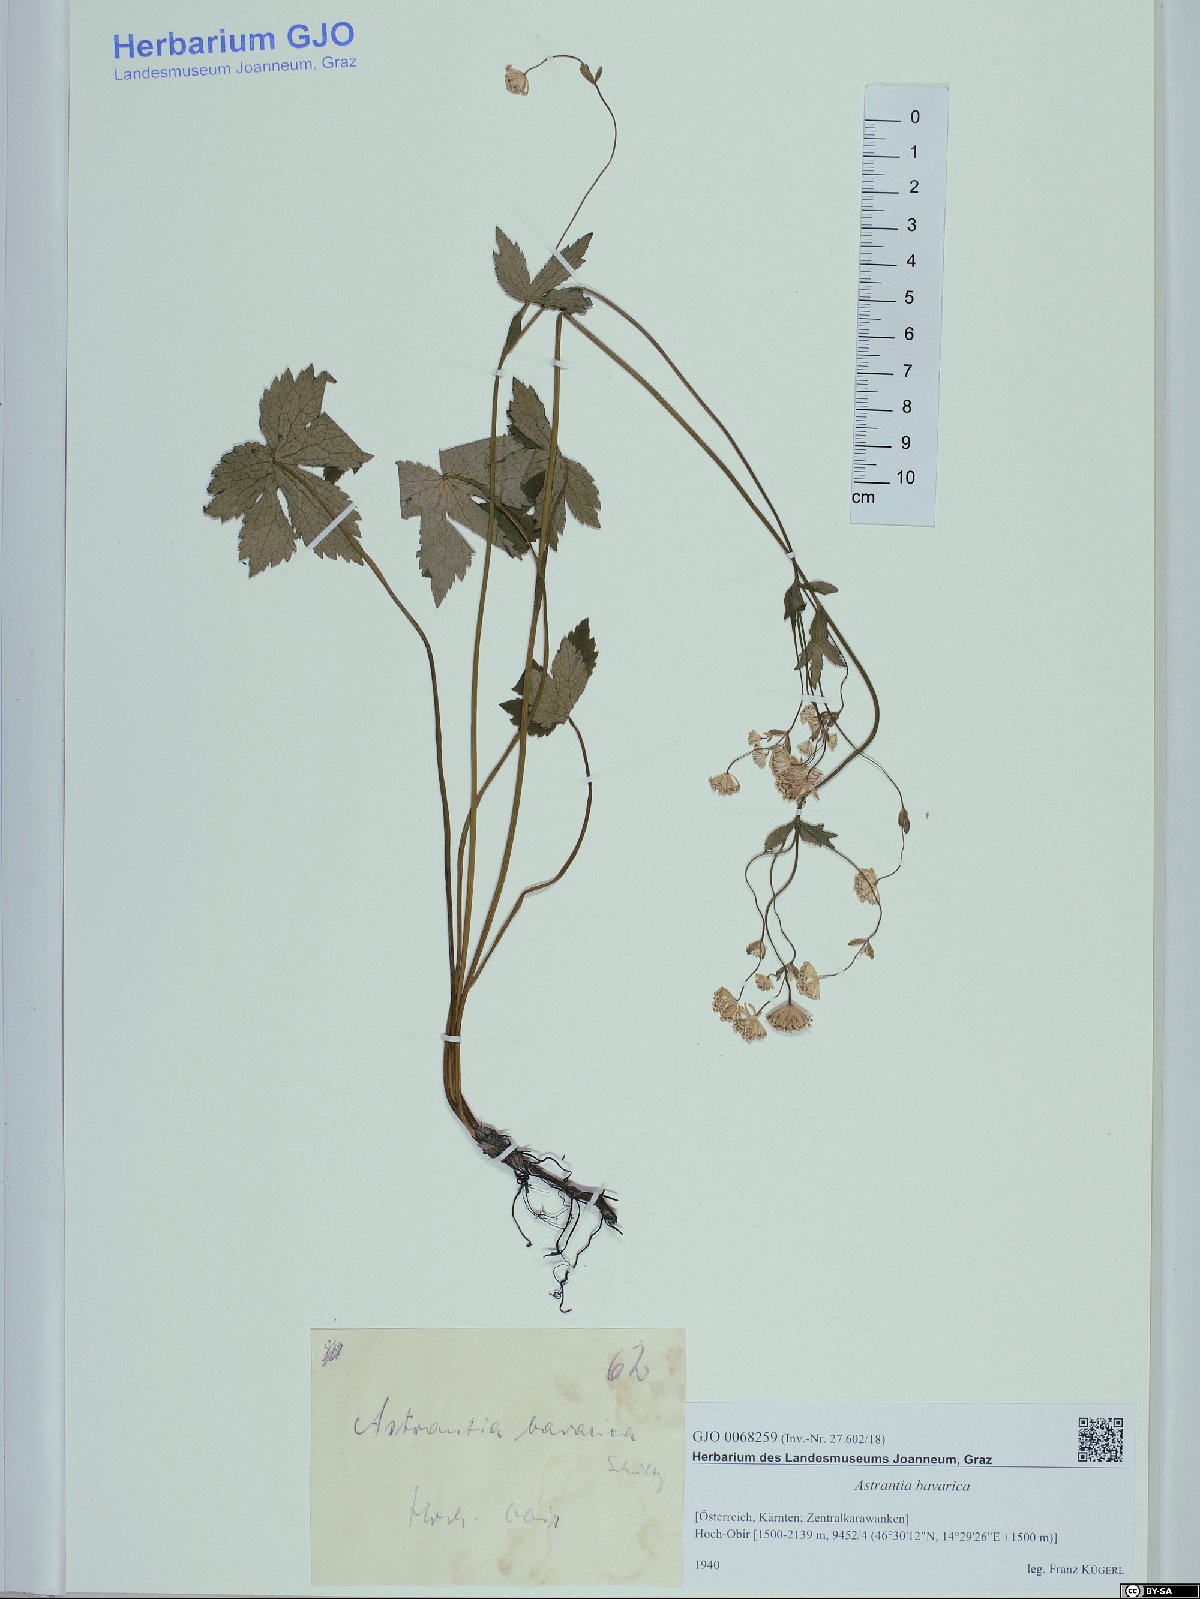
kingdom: Plantae
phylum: Tracheophyta
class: Magnoliopsida
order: Apiales
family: Apiaceae
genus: Astrantia
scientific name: Astrantia bavarica
